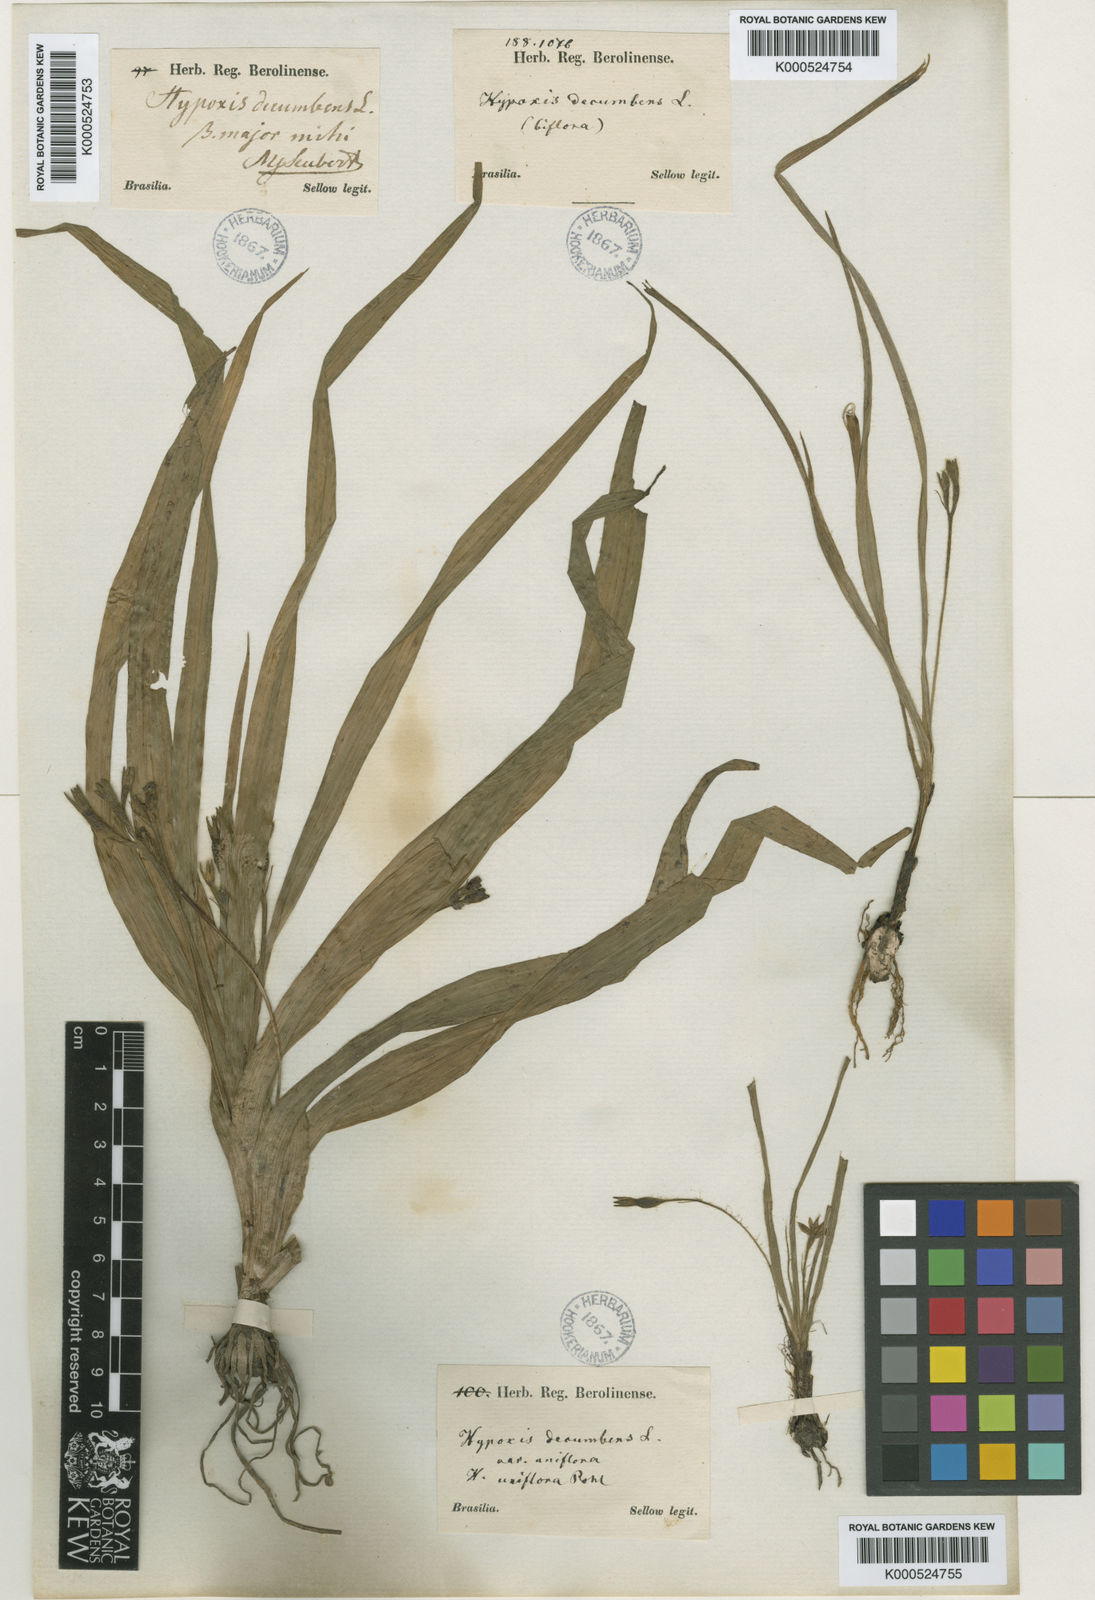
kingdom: Plantae
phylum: Tracheophyta
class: Liliopsida
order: Asparagales
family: Hypoxidaceae
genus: Hypoxis
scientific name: Hypoxis decumbens
